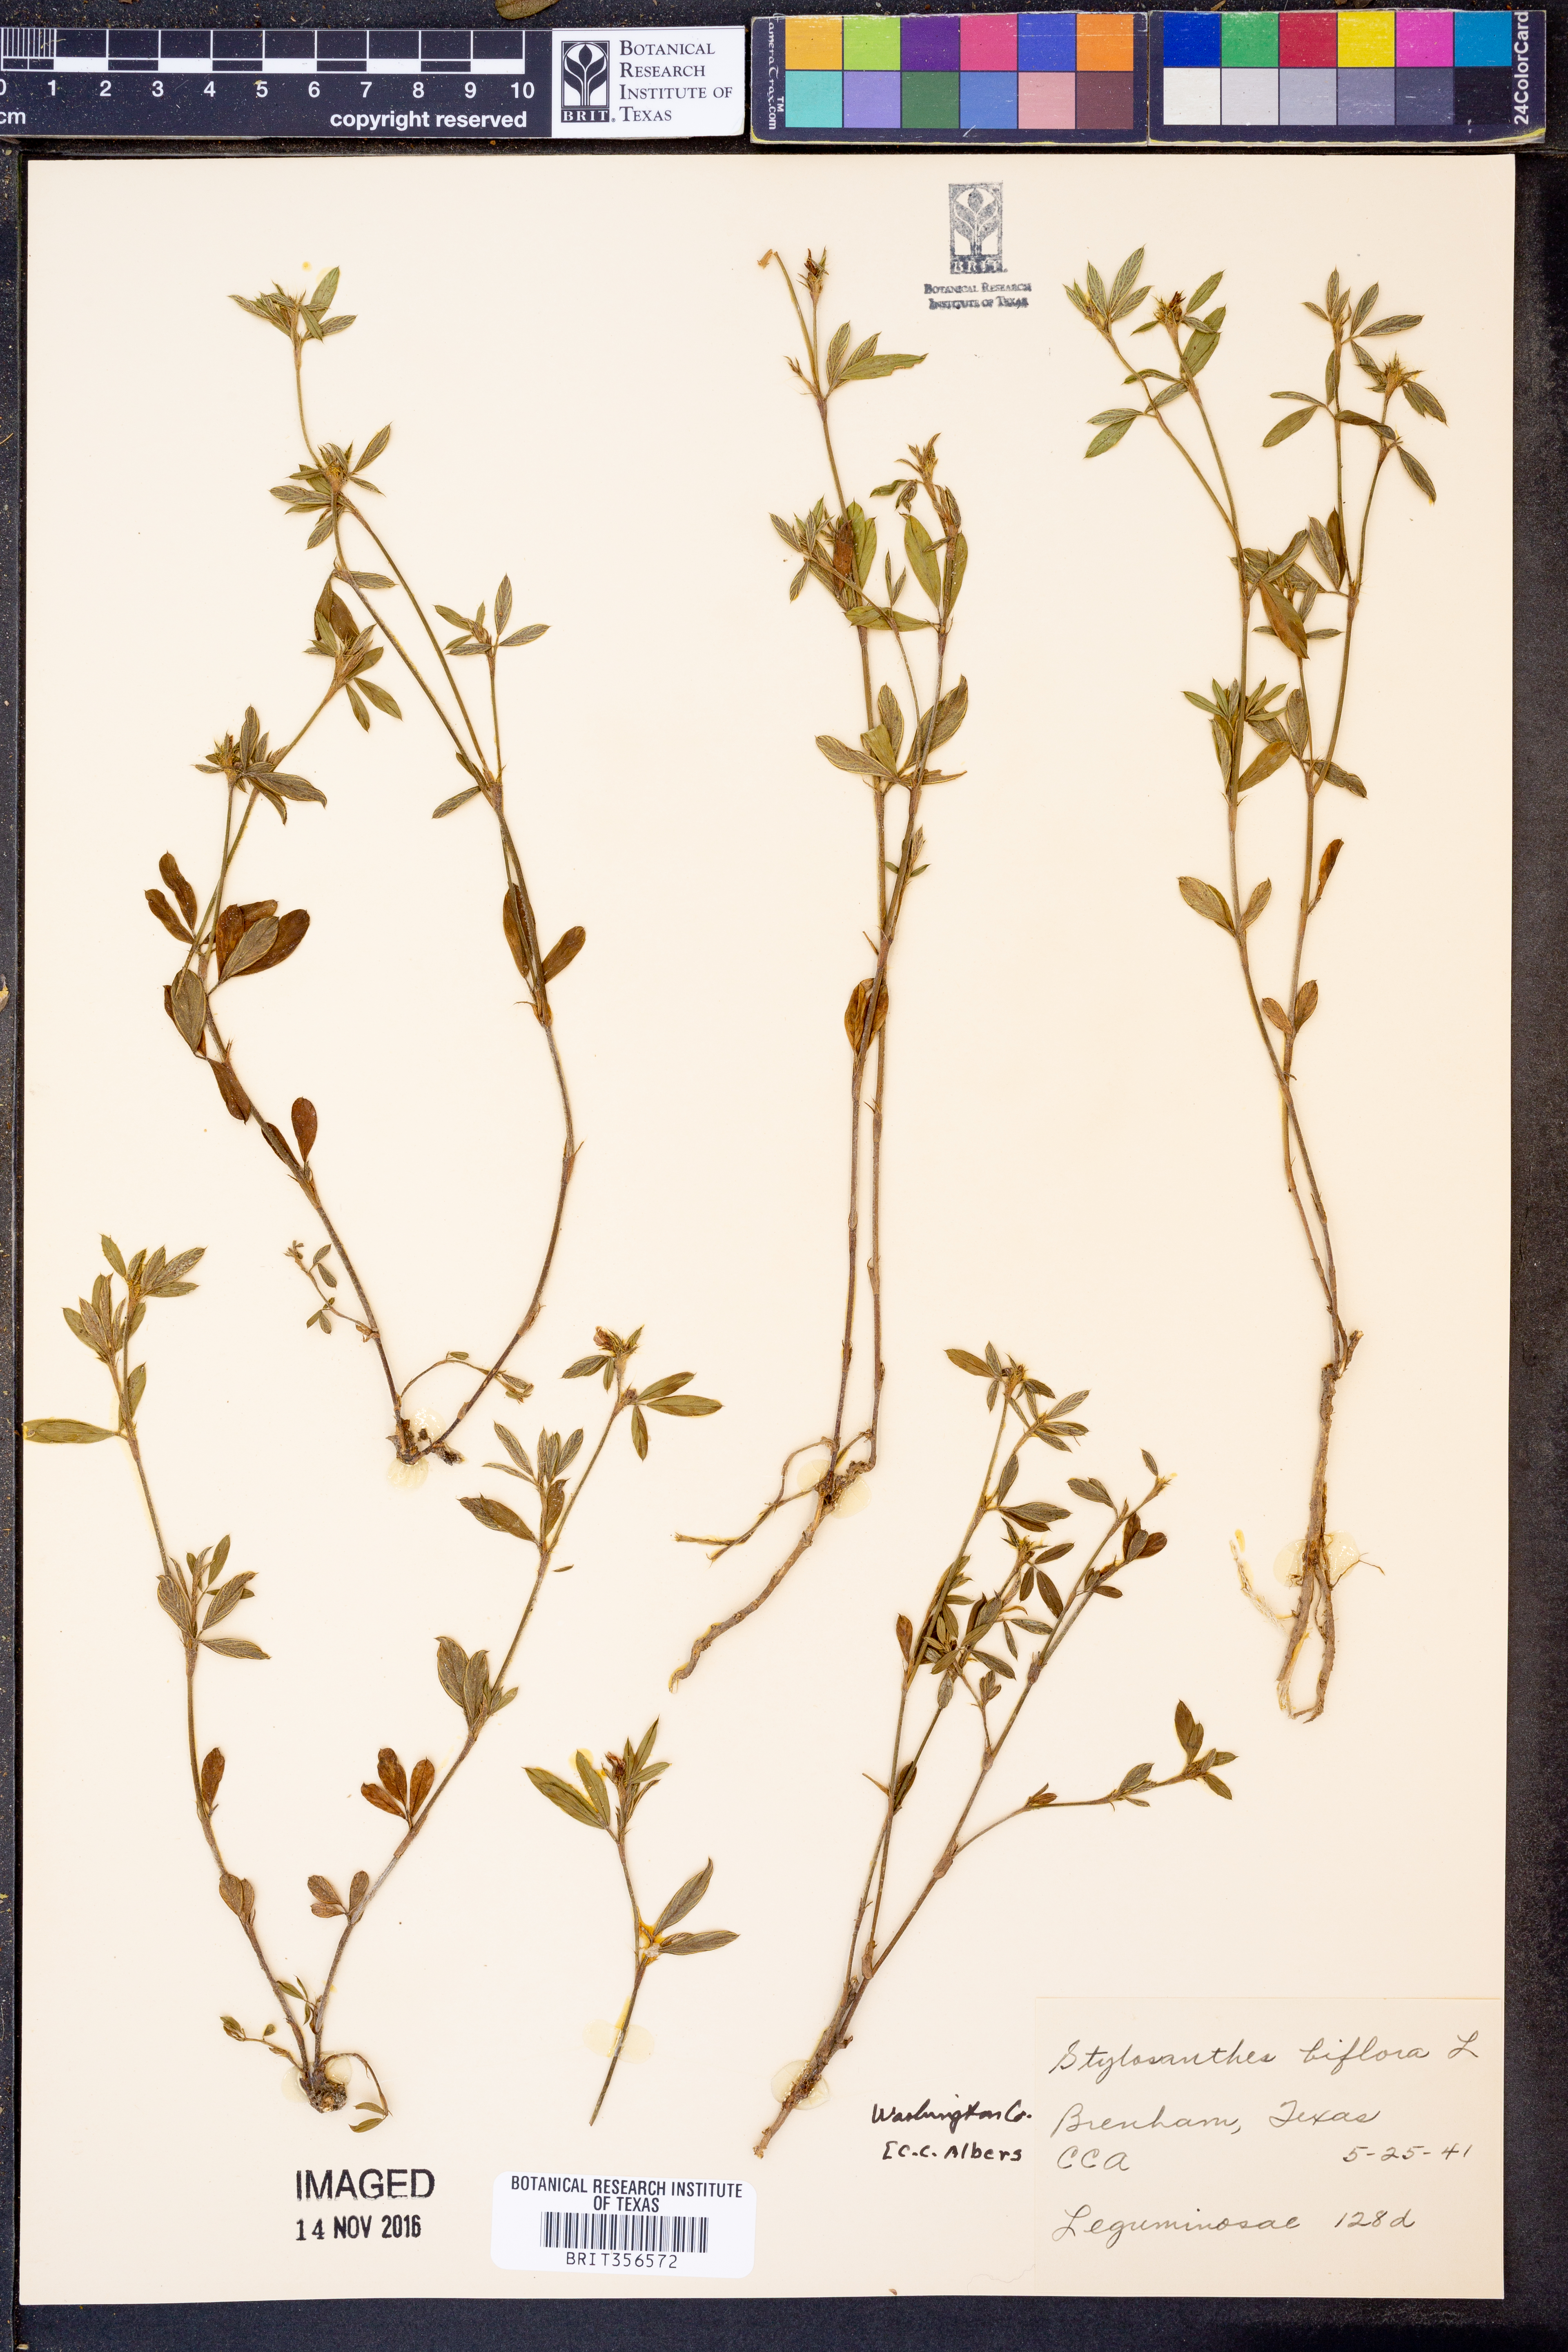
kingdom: Plantae
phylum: Tracheophyta
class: Magnoliopsida
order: Fabales
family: Fabaceae
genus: Stylosanthes
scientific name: Stylosanthes biflora
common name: Two-flower pencil-flower
